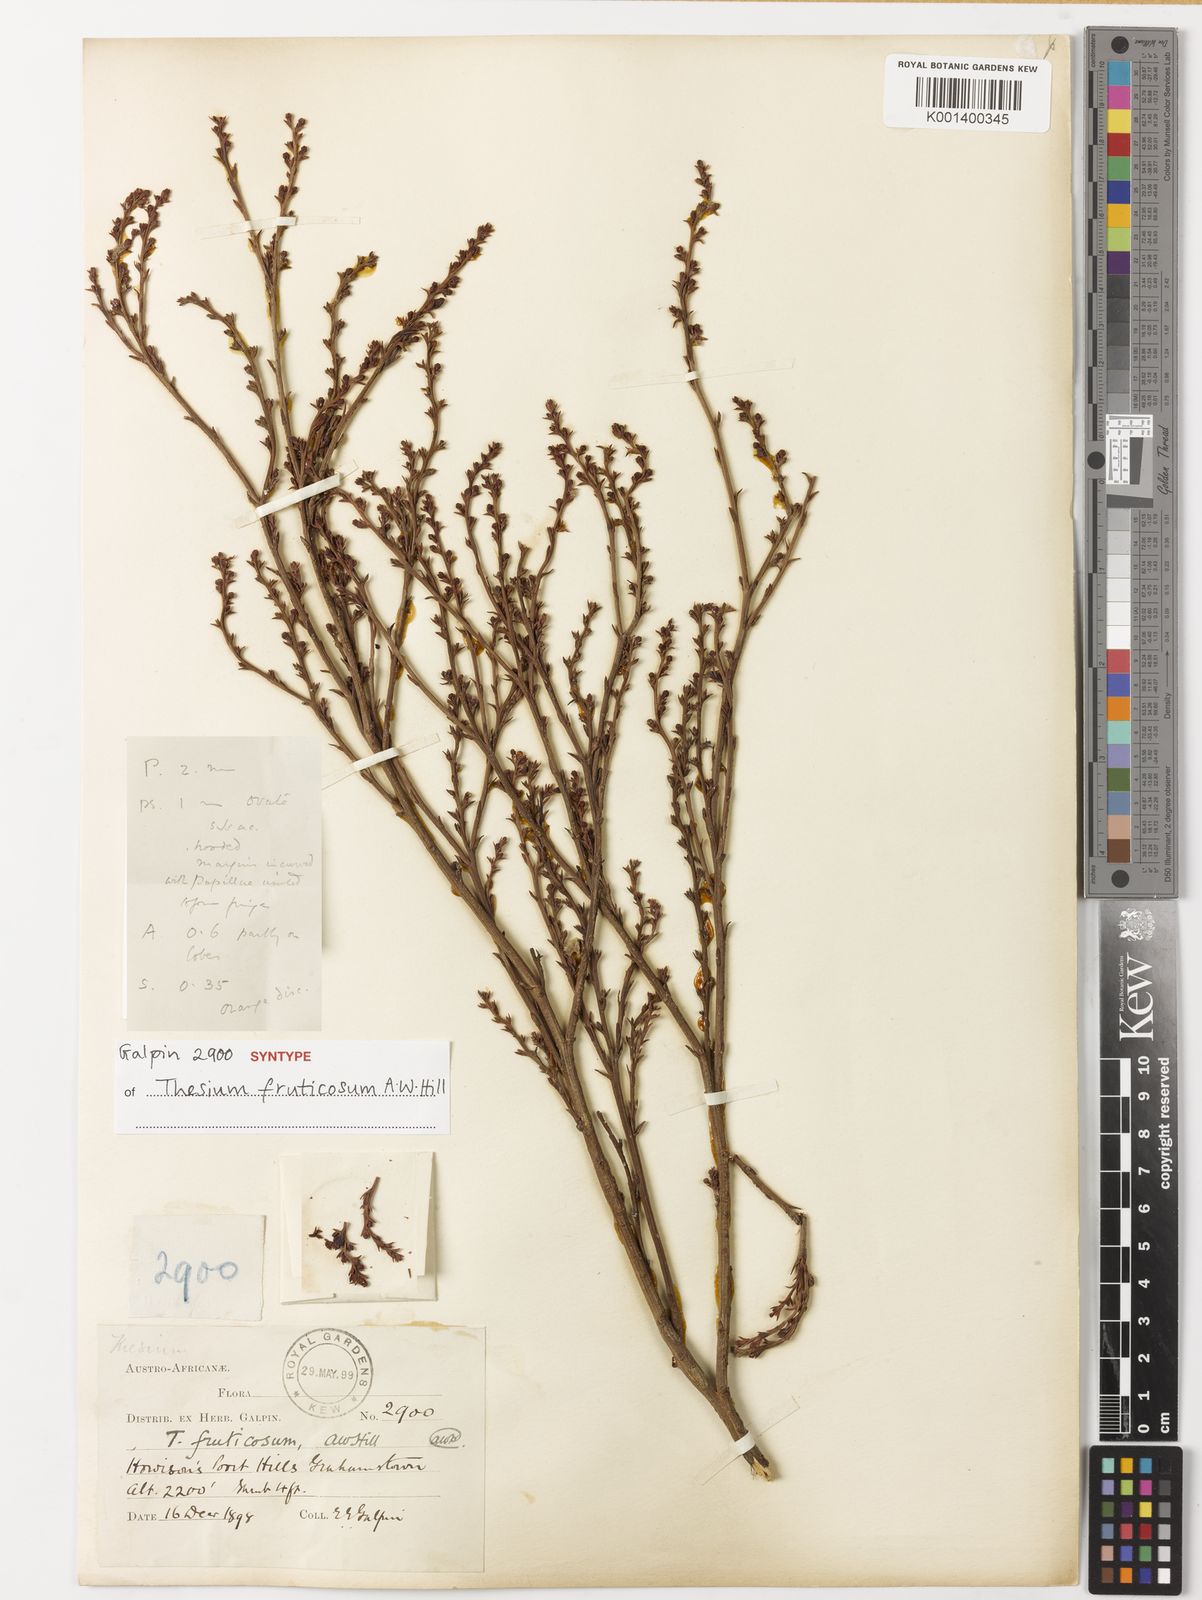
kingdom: Plantae
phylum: Tracheophyta
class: Magnoliopsida
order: Santalales
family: Thesiaceae
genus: Thesium
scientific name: Thesium fruticosum
